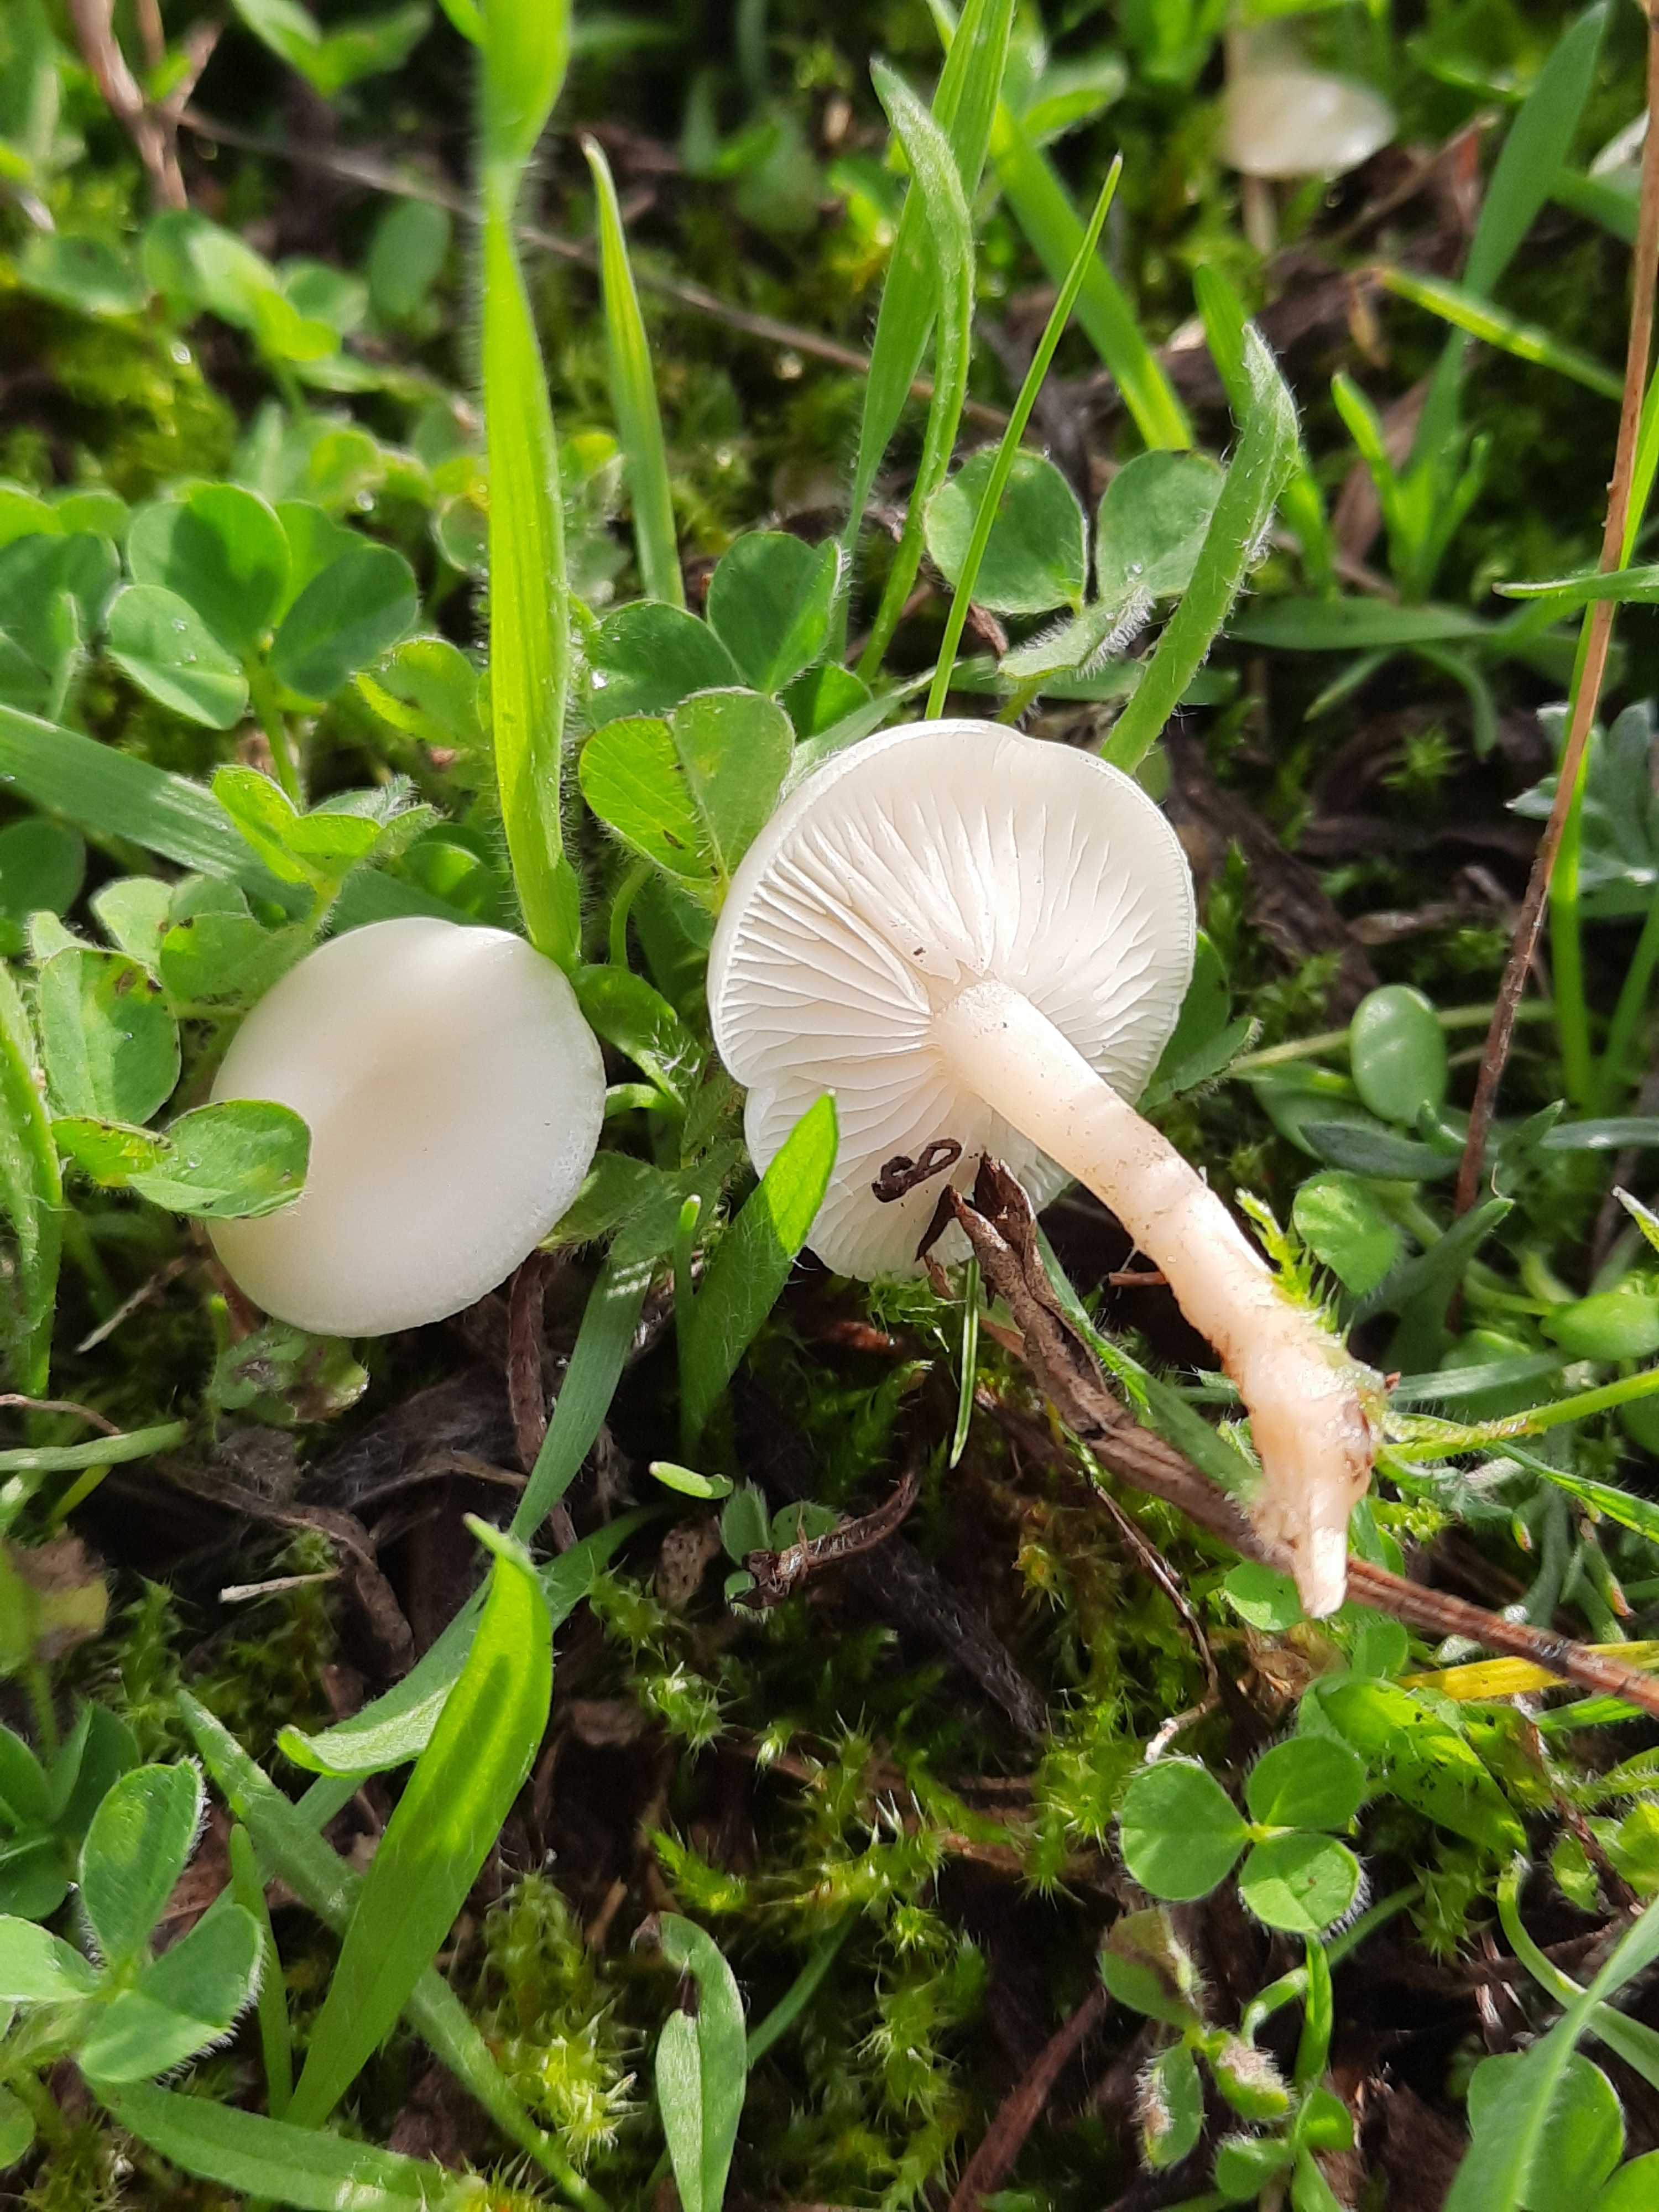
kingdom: Fungi
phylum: Basidiomycota
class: Agaricomycetes
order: Agaricales
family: Tricholomataceae
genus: Clitocybe
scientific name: Clitocybe
